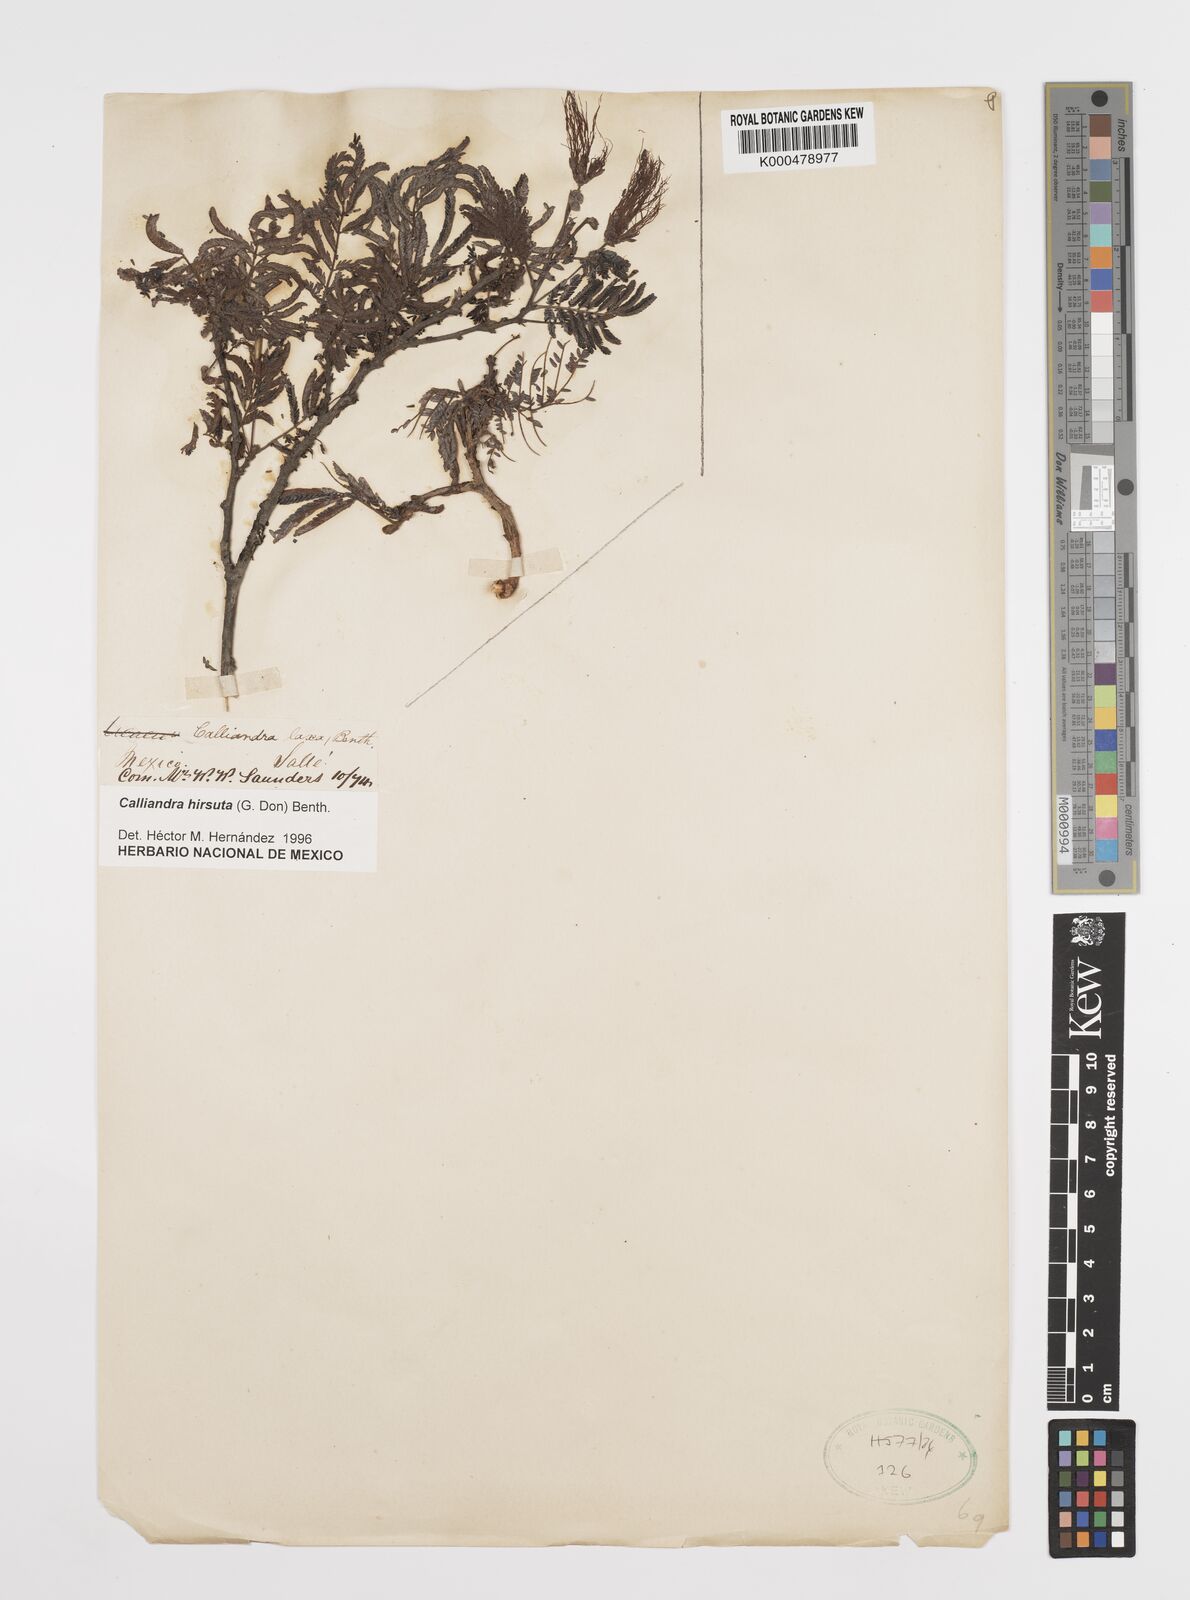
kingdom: Plantae
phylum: Tracheophyta
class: Magnoliopsida
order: Fabales
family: Fabaceae
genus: Calliandra
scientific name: Calliandra hirsuta
